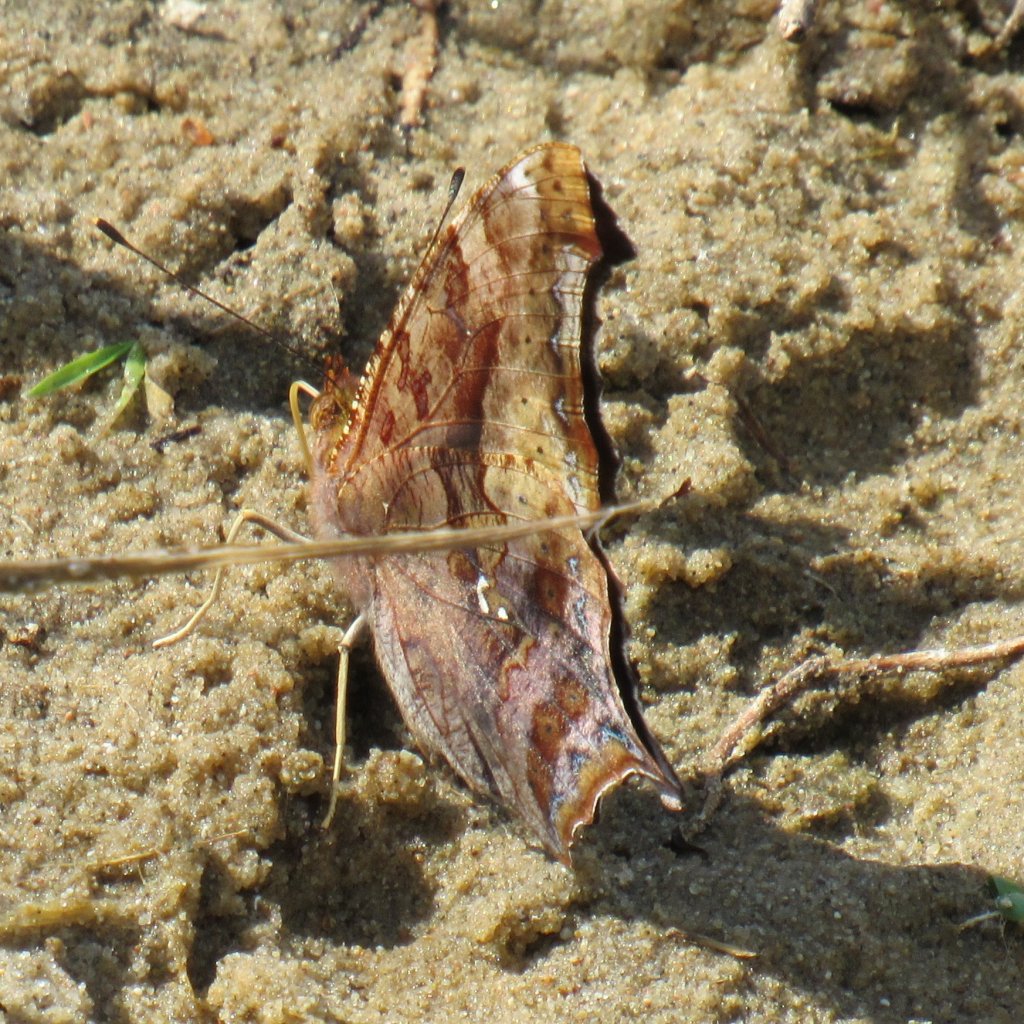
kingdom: Animalia
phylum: Arthropoda
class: Insecta
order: Lepidoptera
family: Nymphalidae
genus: Polygonia
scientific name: Polygonia interrogationis
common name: Question Mark
